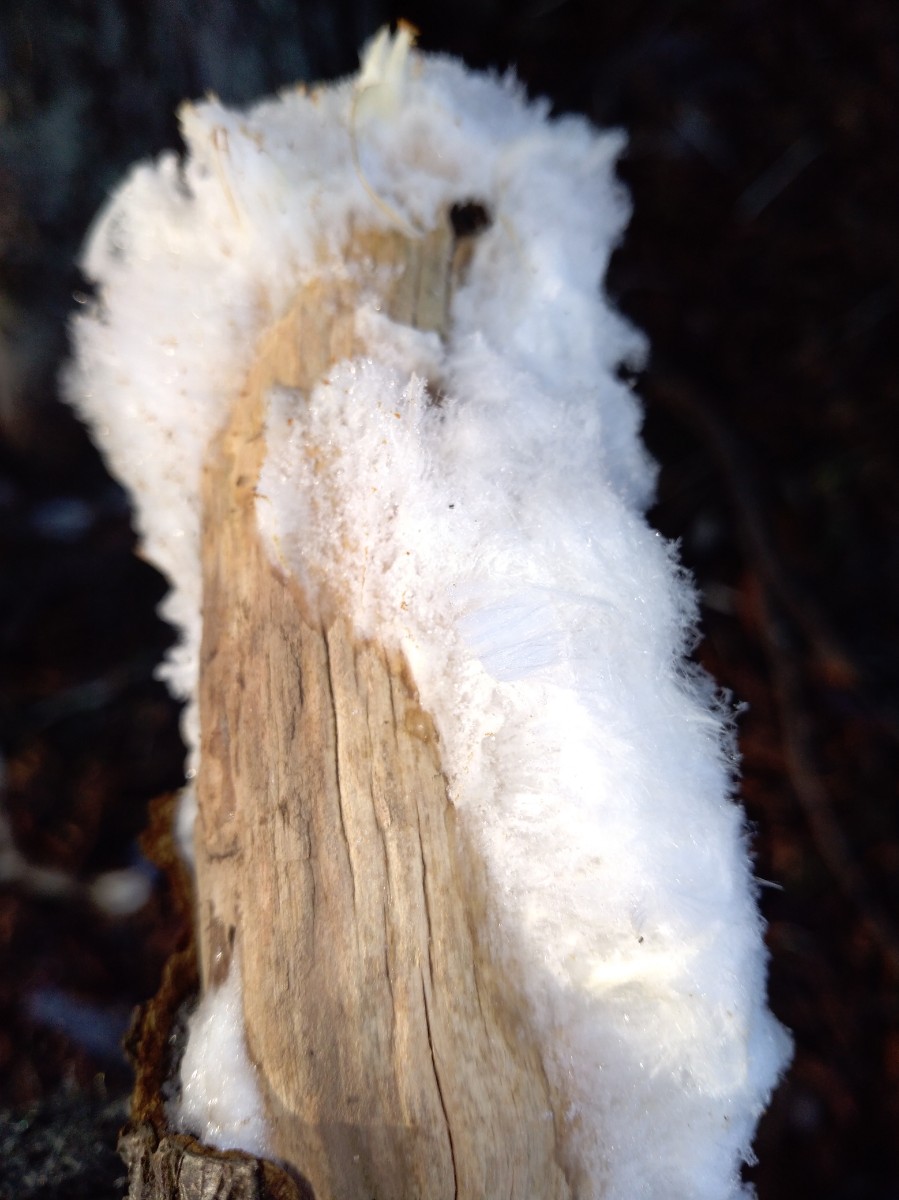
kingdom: Fungi
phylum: Basidiomycota
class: Tremellomycetes
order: Tremellales
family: Exidiaceae
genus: Exidiopsis
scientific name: Exidiopsis effusa
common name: smuk bævrehinde
